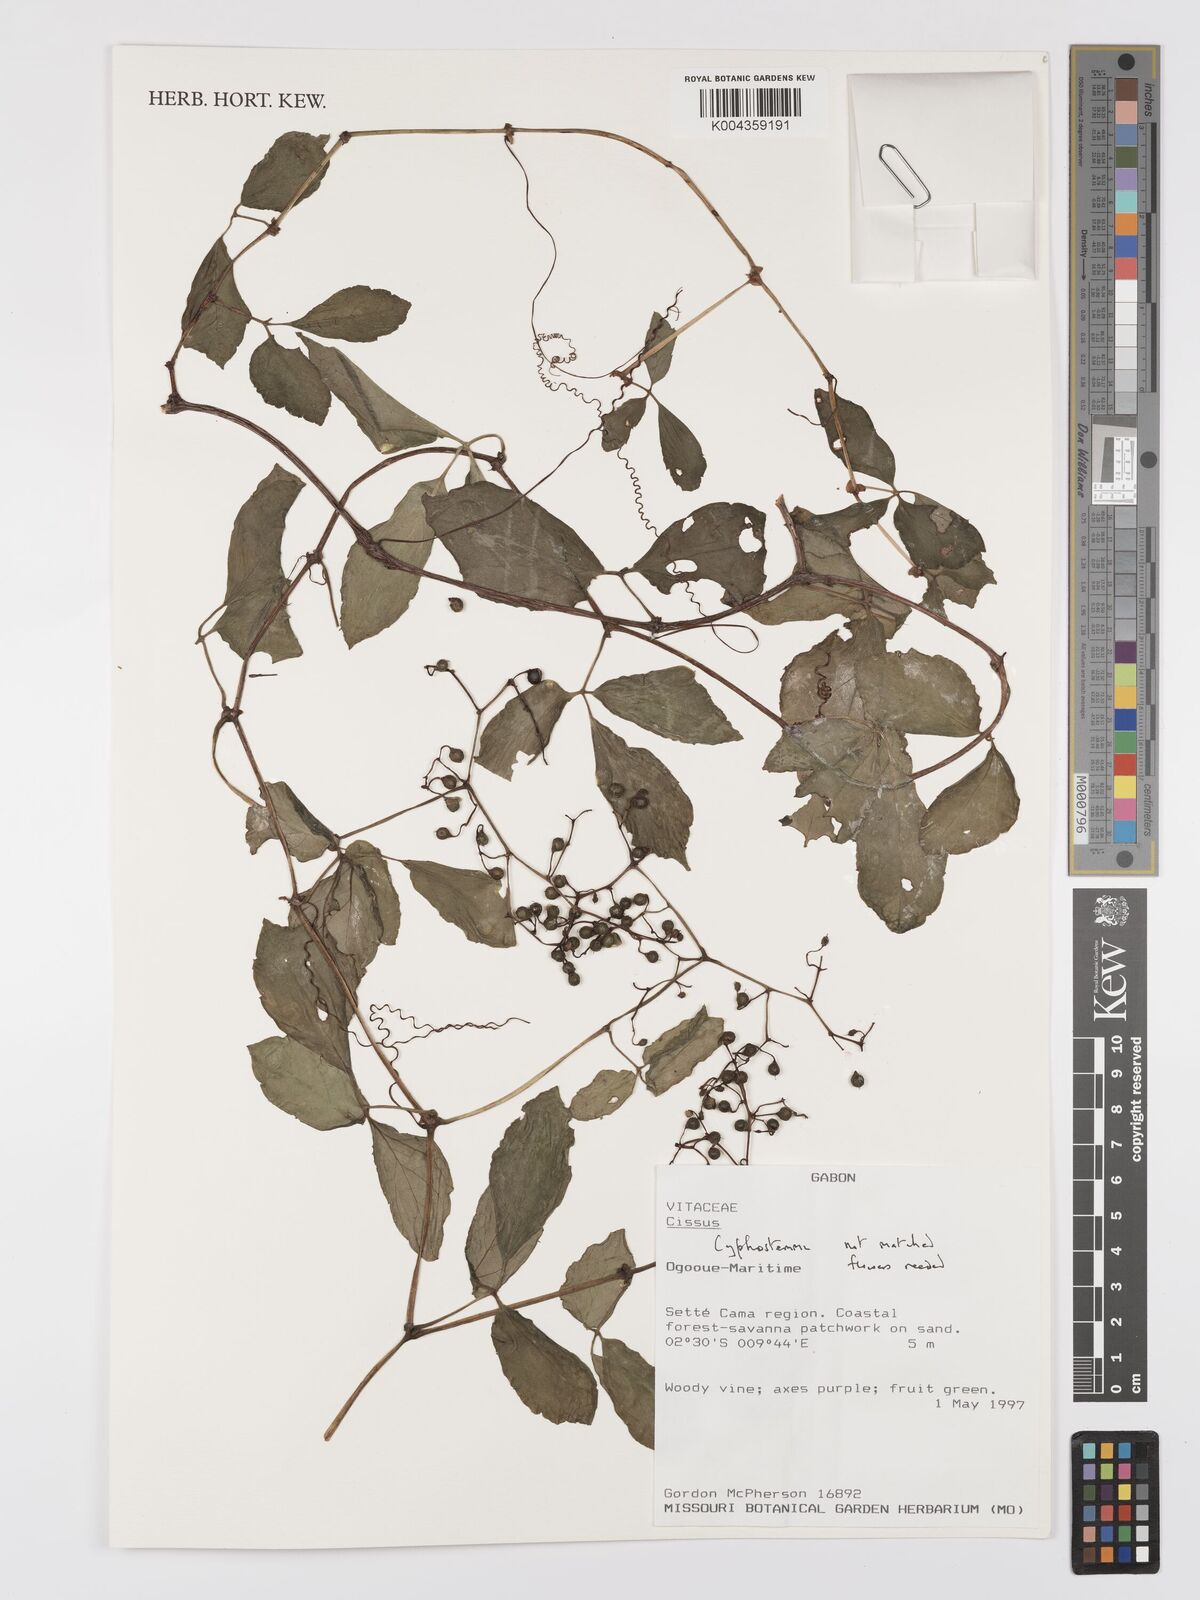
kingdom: Plantae
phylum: Tracheophyta
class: Magnoliopsida
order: Vitales
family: Vitaceae
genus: Cyphostemma
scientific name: Cyphostemma
